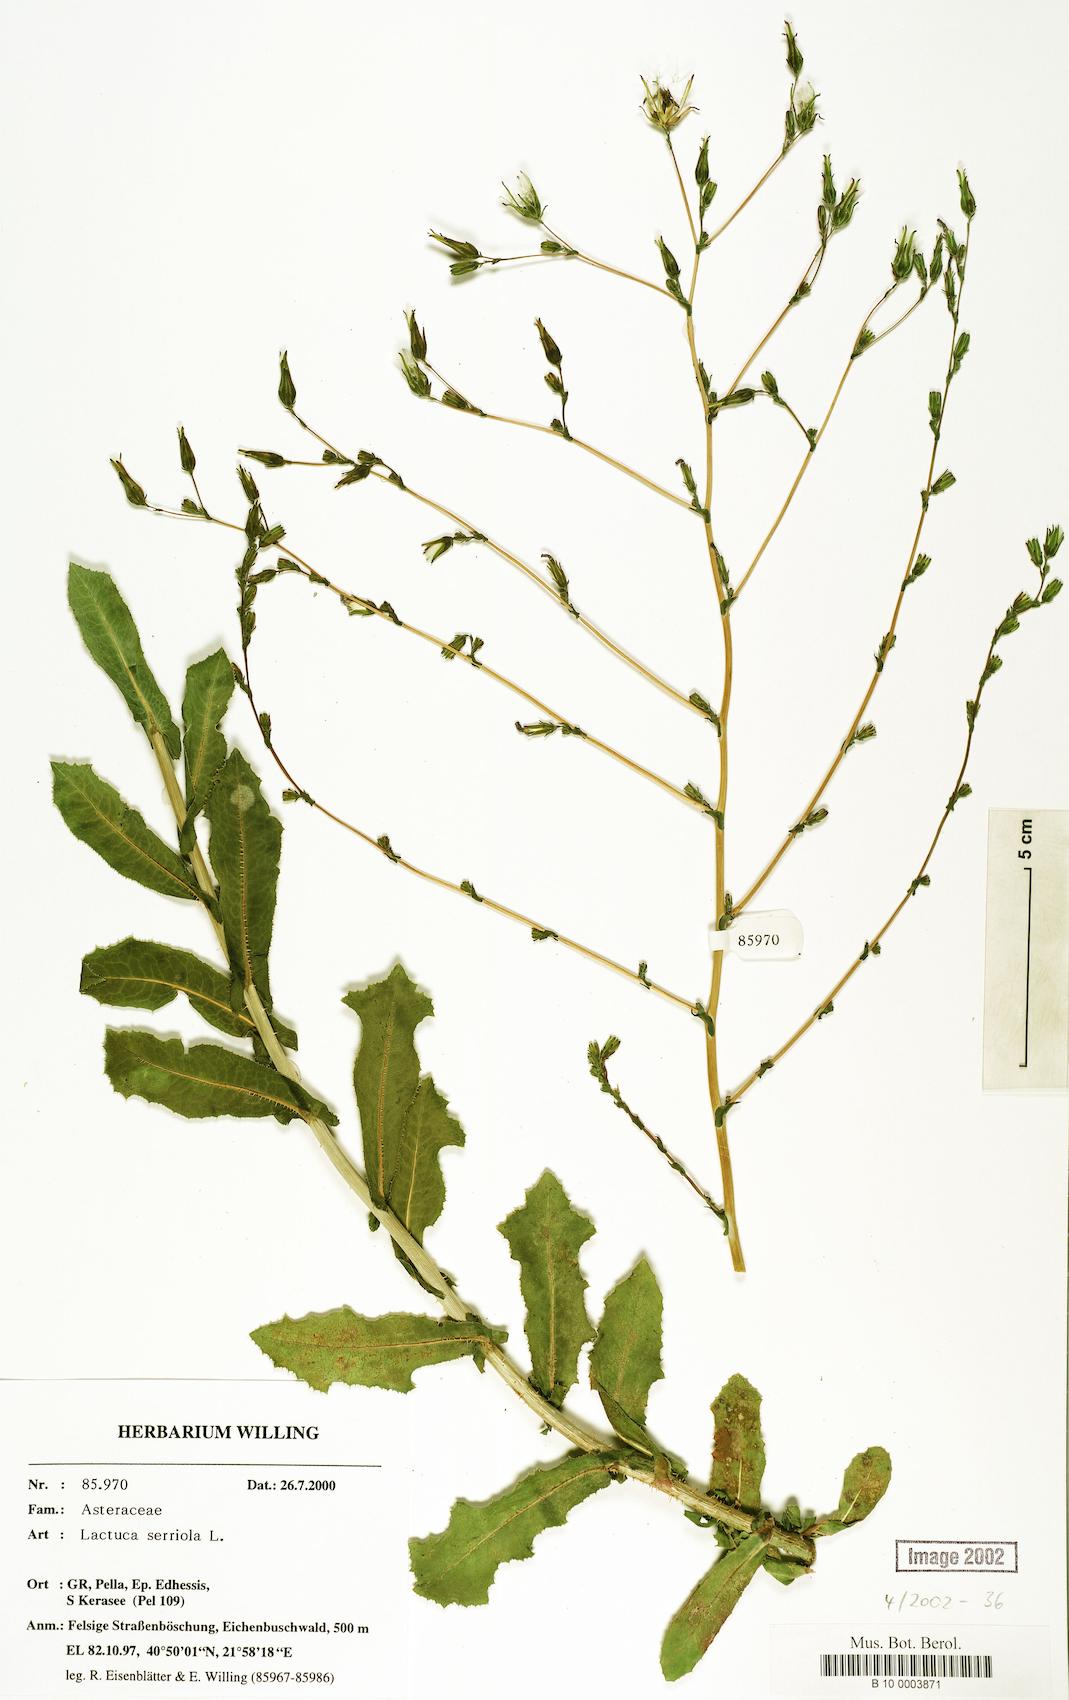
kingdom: Plantae
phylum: Tracheophyta
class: Magnoliopsida
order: Asterales
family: Asteraceae
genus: Lactuca
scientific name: Lactuca serriola
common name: Prickly lettuce
